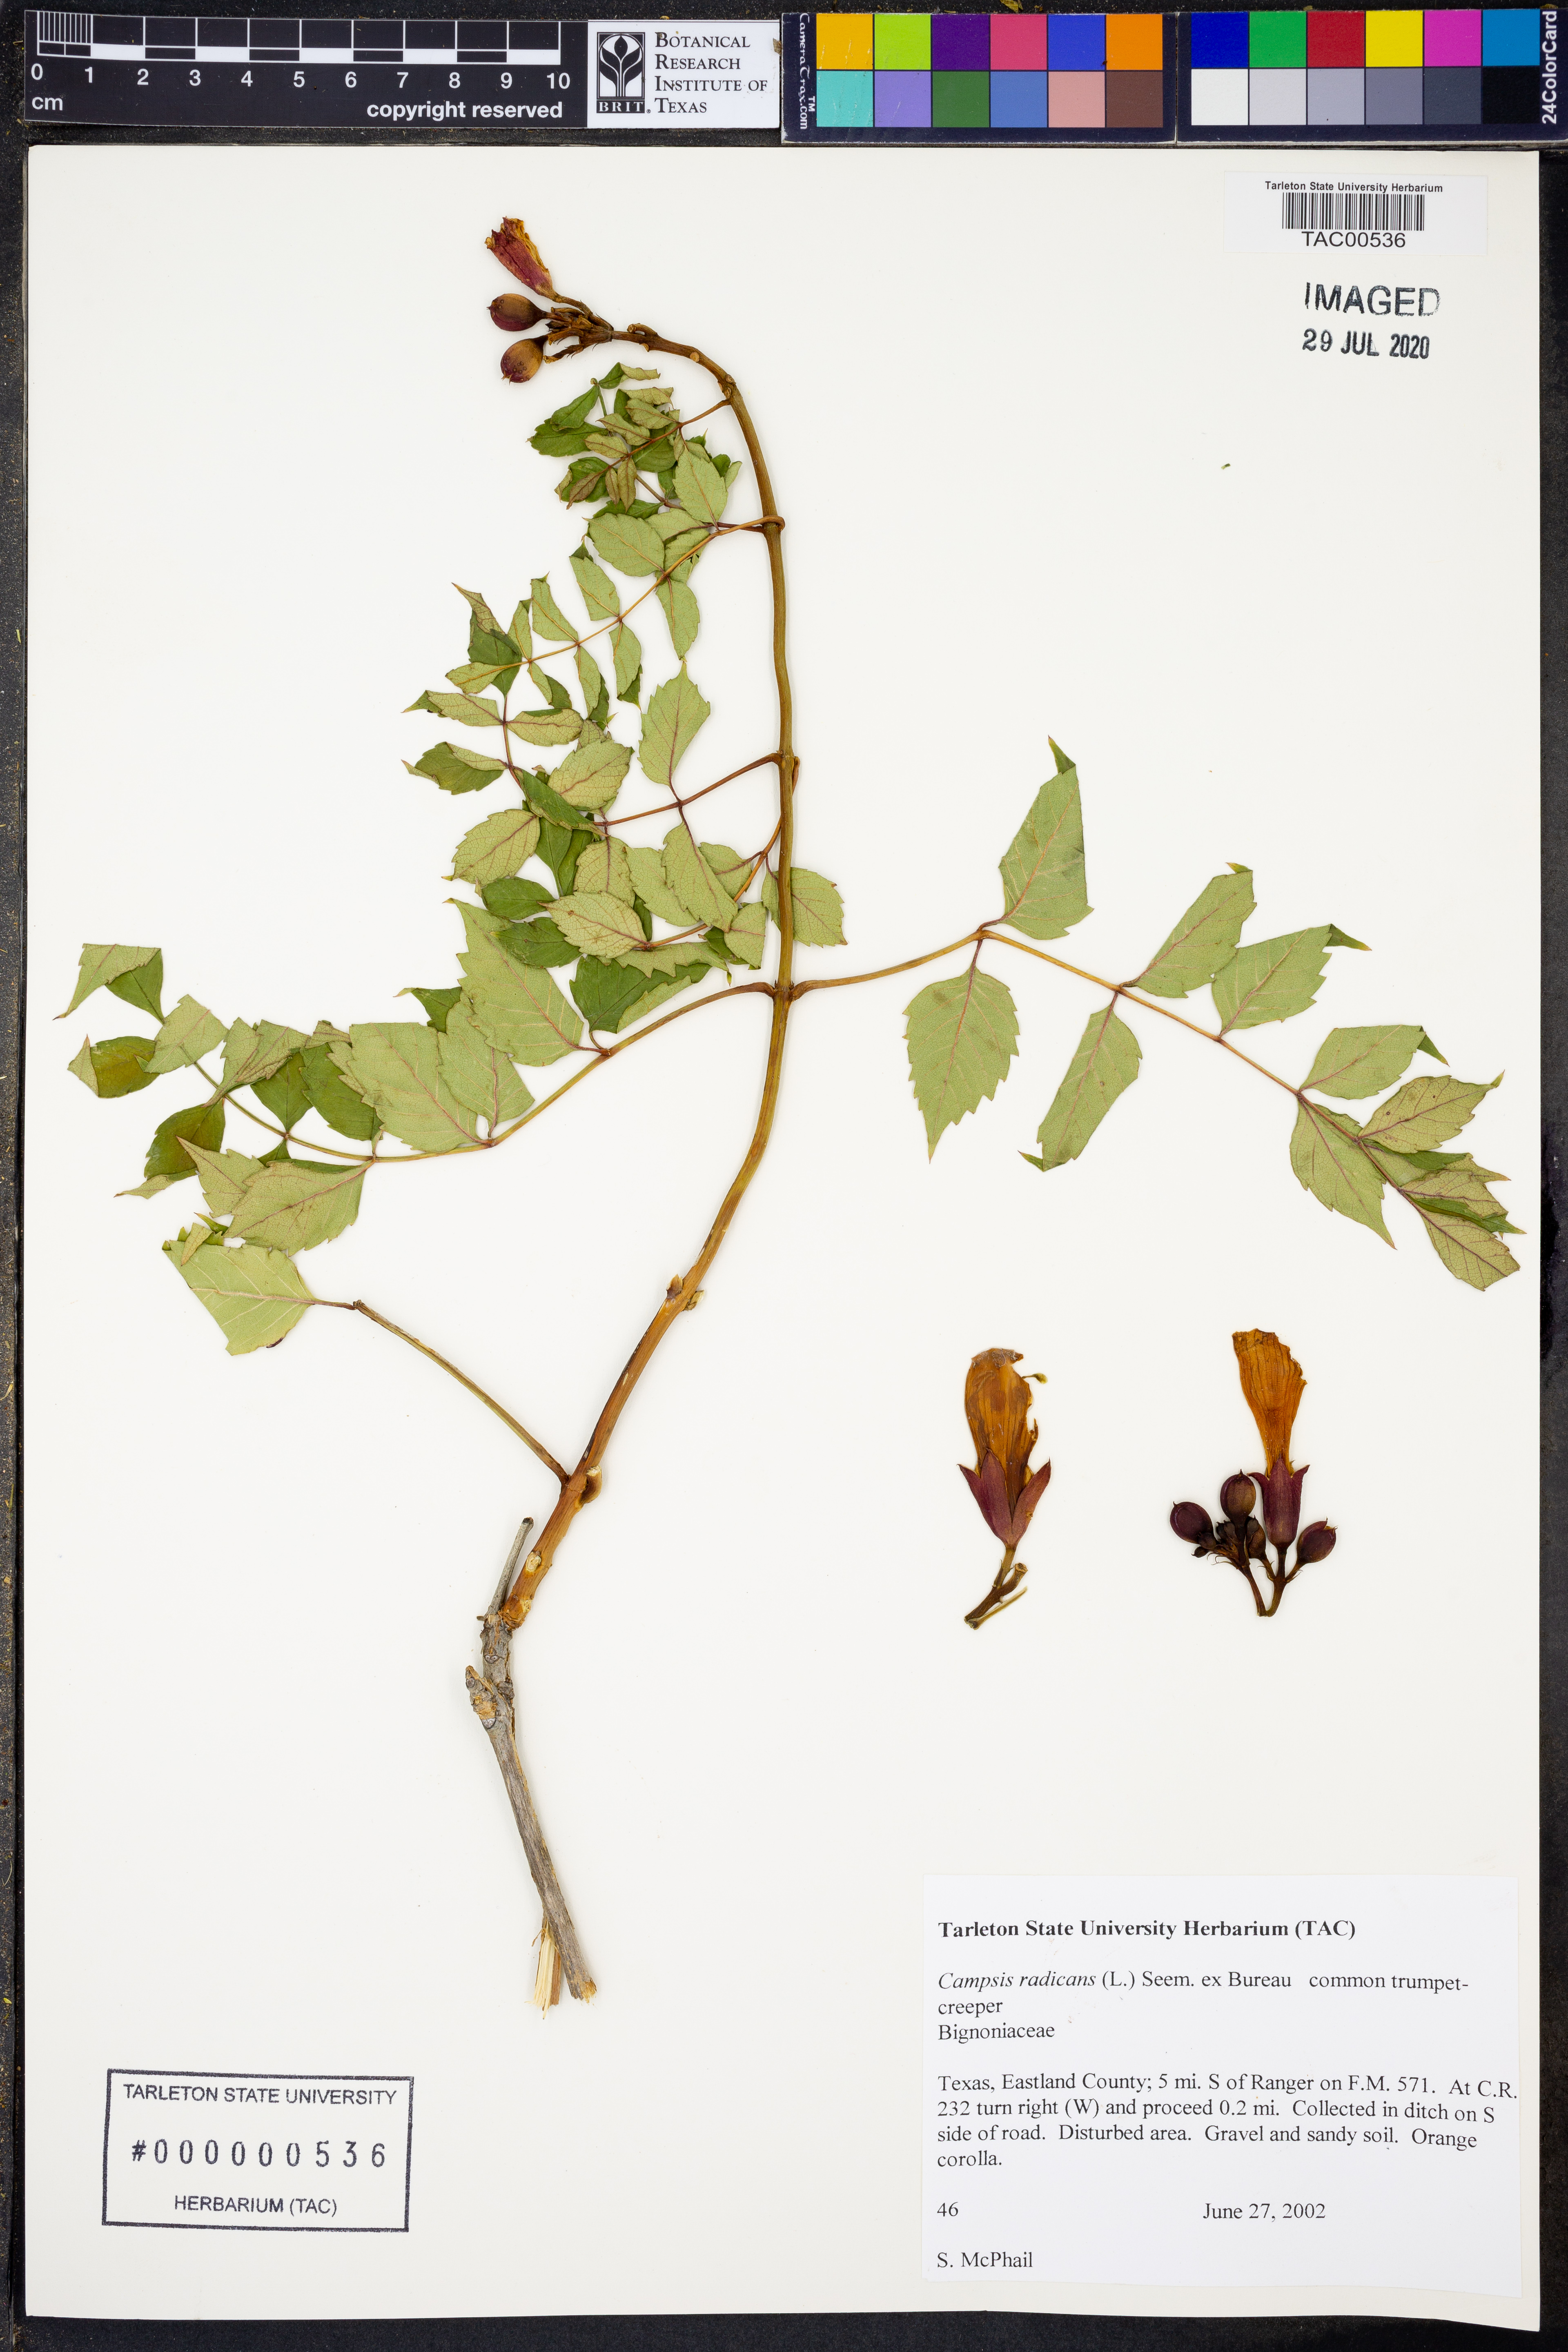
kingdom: Plantae
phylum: Tracheophyta
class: Magnoliopsida
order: Lamiales
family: Bignoniaceae
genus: Campsis
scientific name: Campsis radicans
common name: Trumpet-creeper
